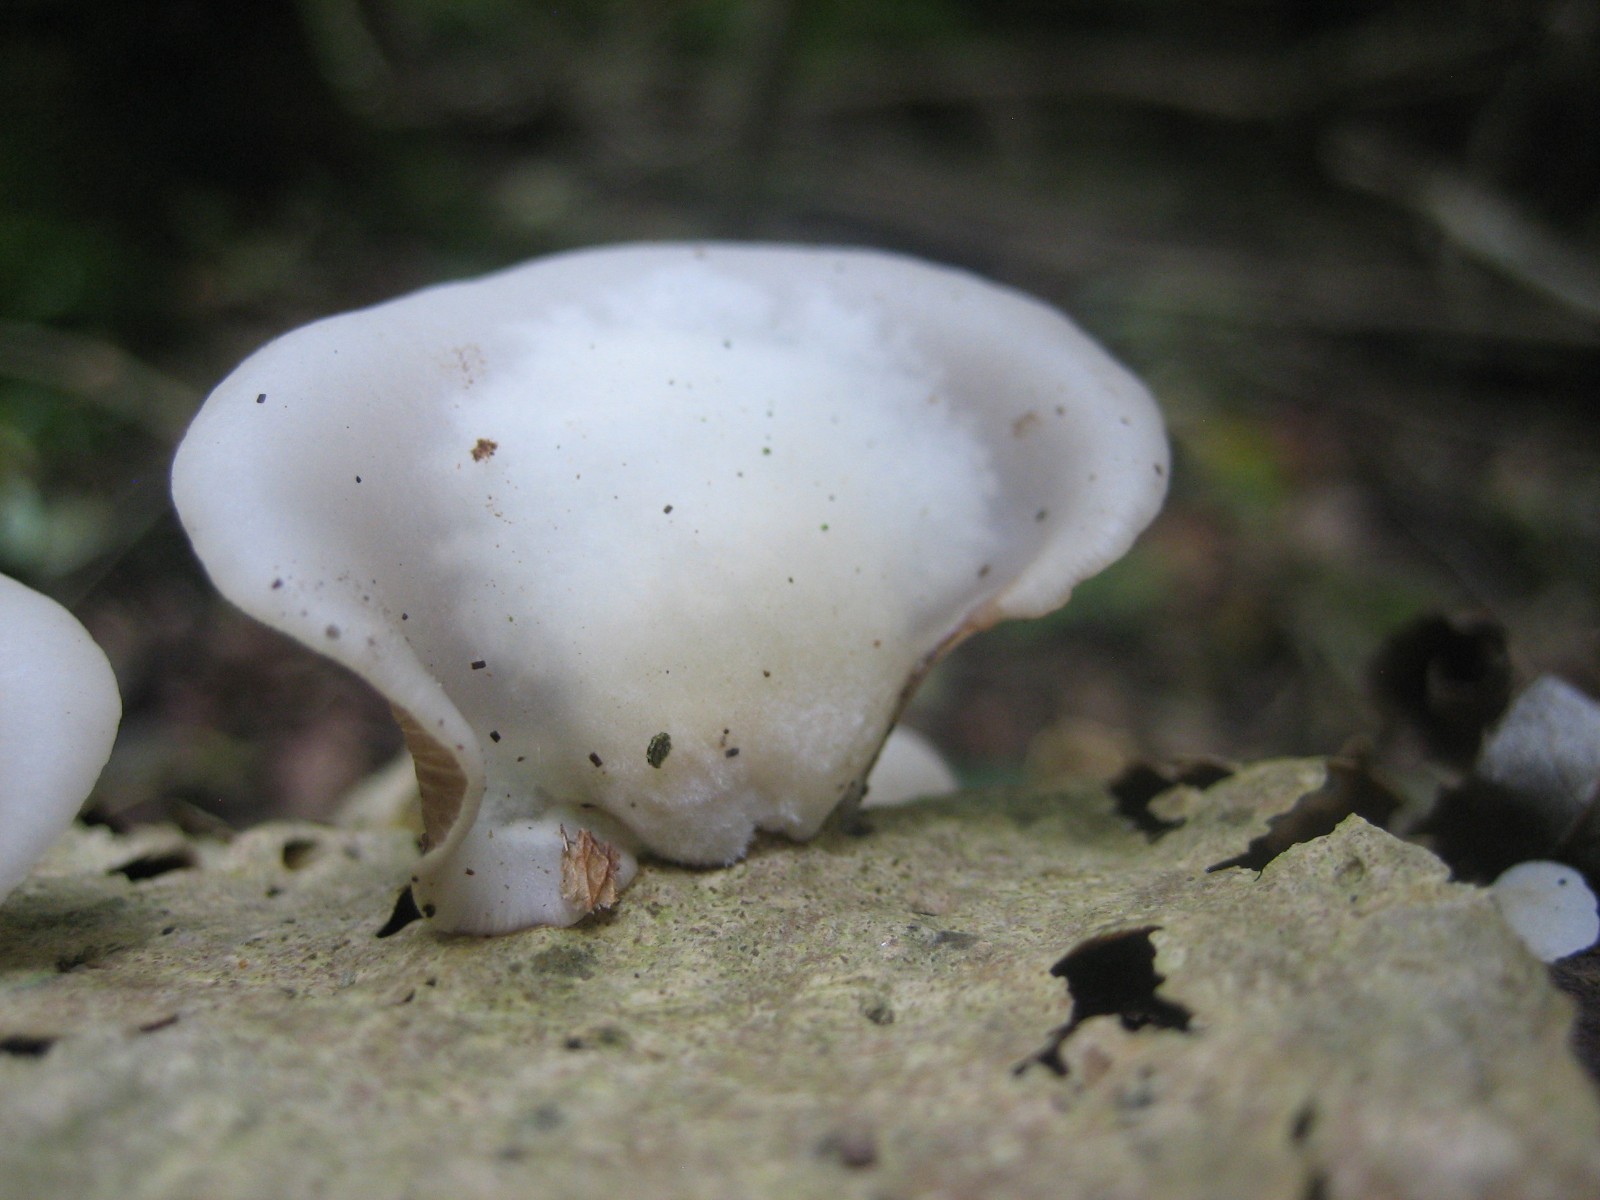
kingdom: Fungi
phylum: Basidiomycota
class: Agaricomycetes
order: Agaricales
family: Crepidotaceae
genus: Crepidotus
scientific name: Crepidotus mollis
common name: blød muslingesvamp
